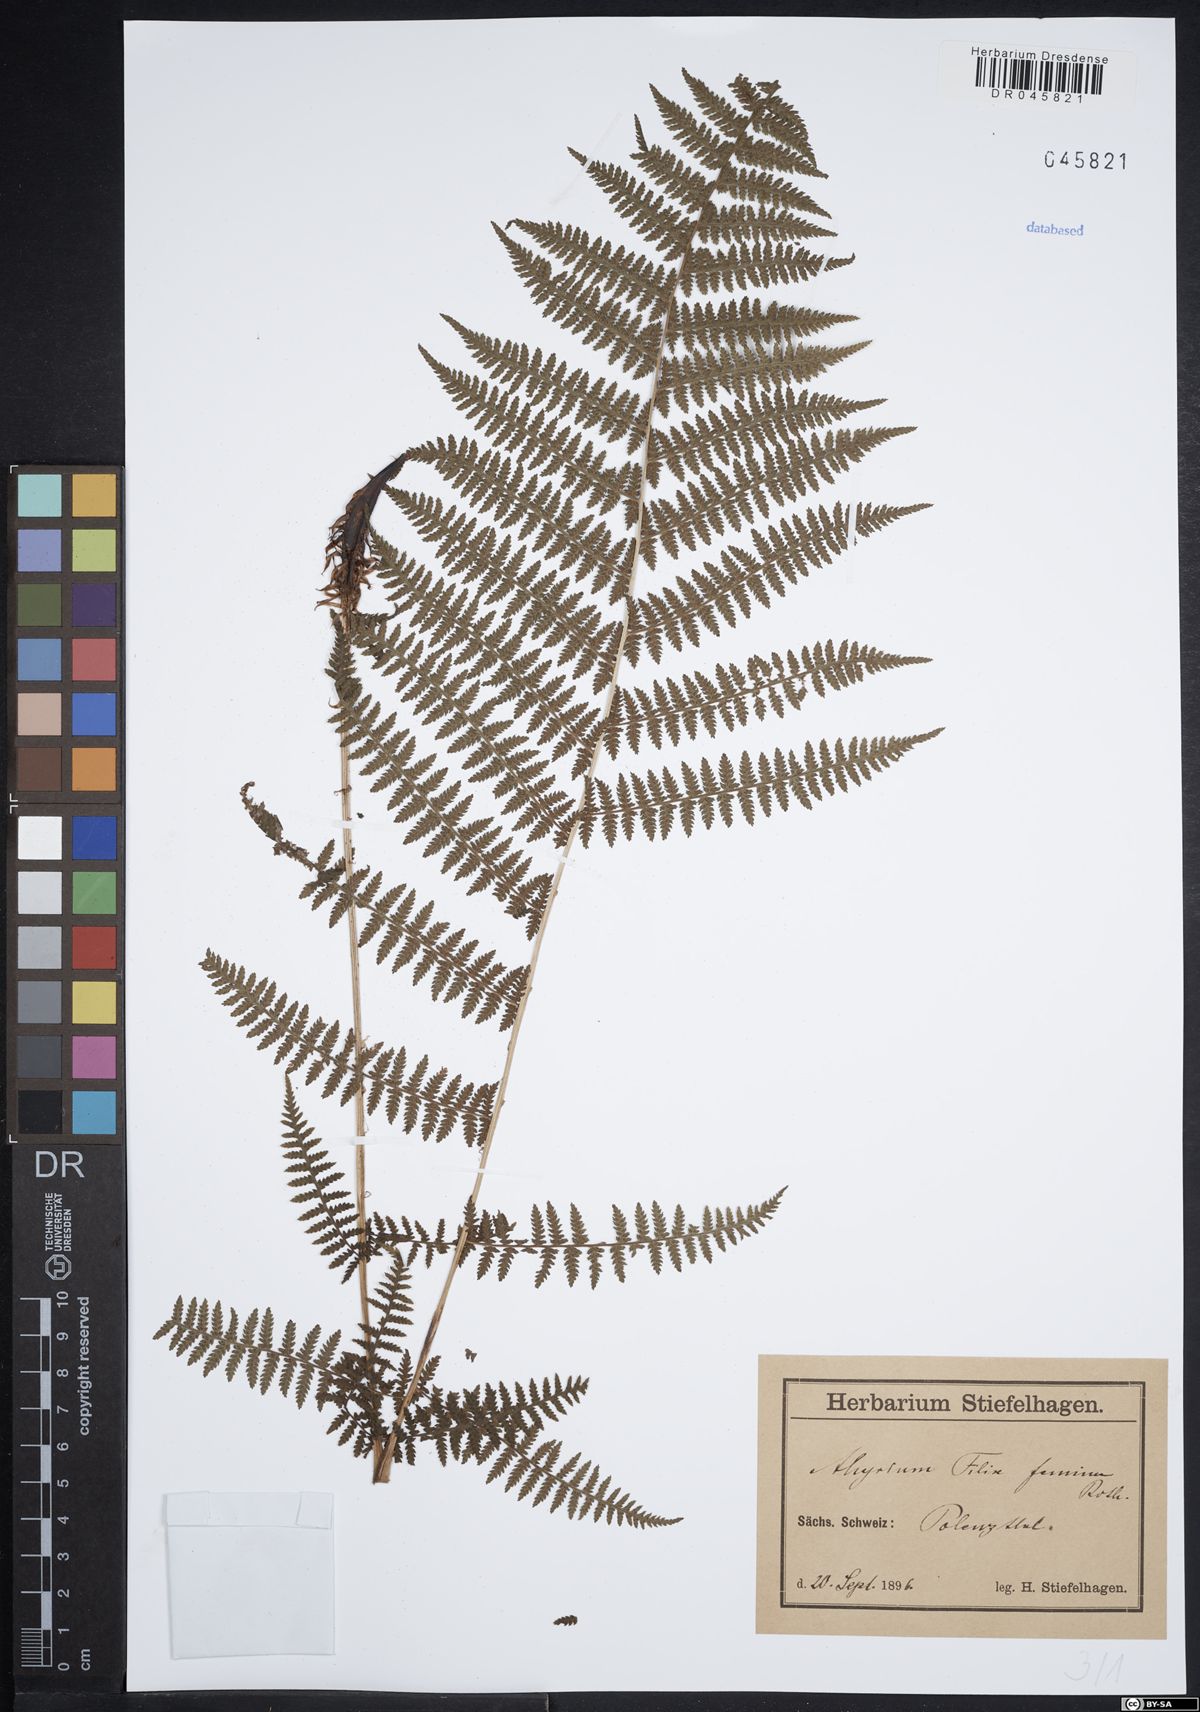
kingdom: Plantae
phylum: Tracheophyta
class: Polypodiopsida
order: Polypodiales
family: Athyriaceae
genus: Athyrium
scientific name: Athyrium filix-femina
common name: Lady fern
